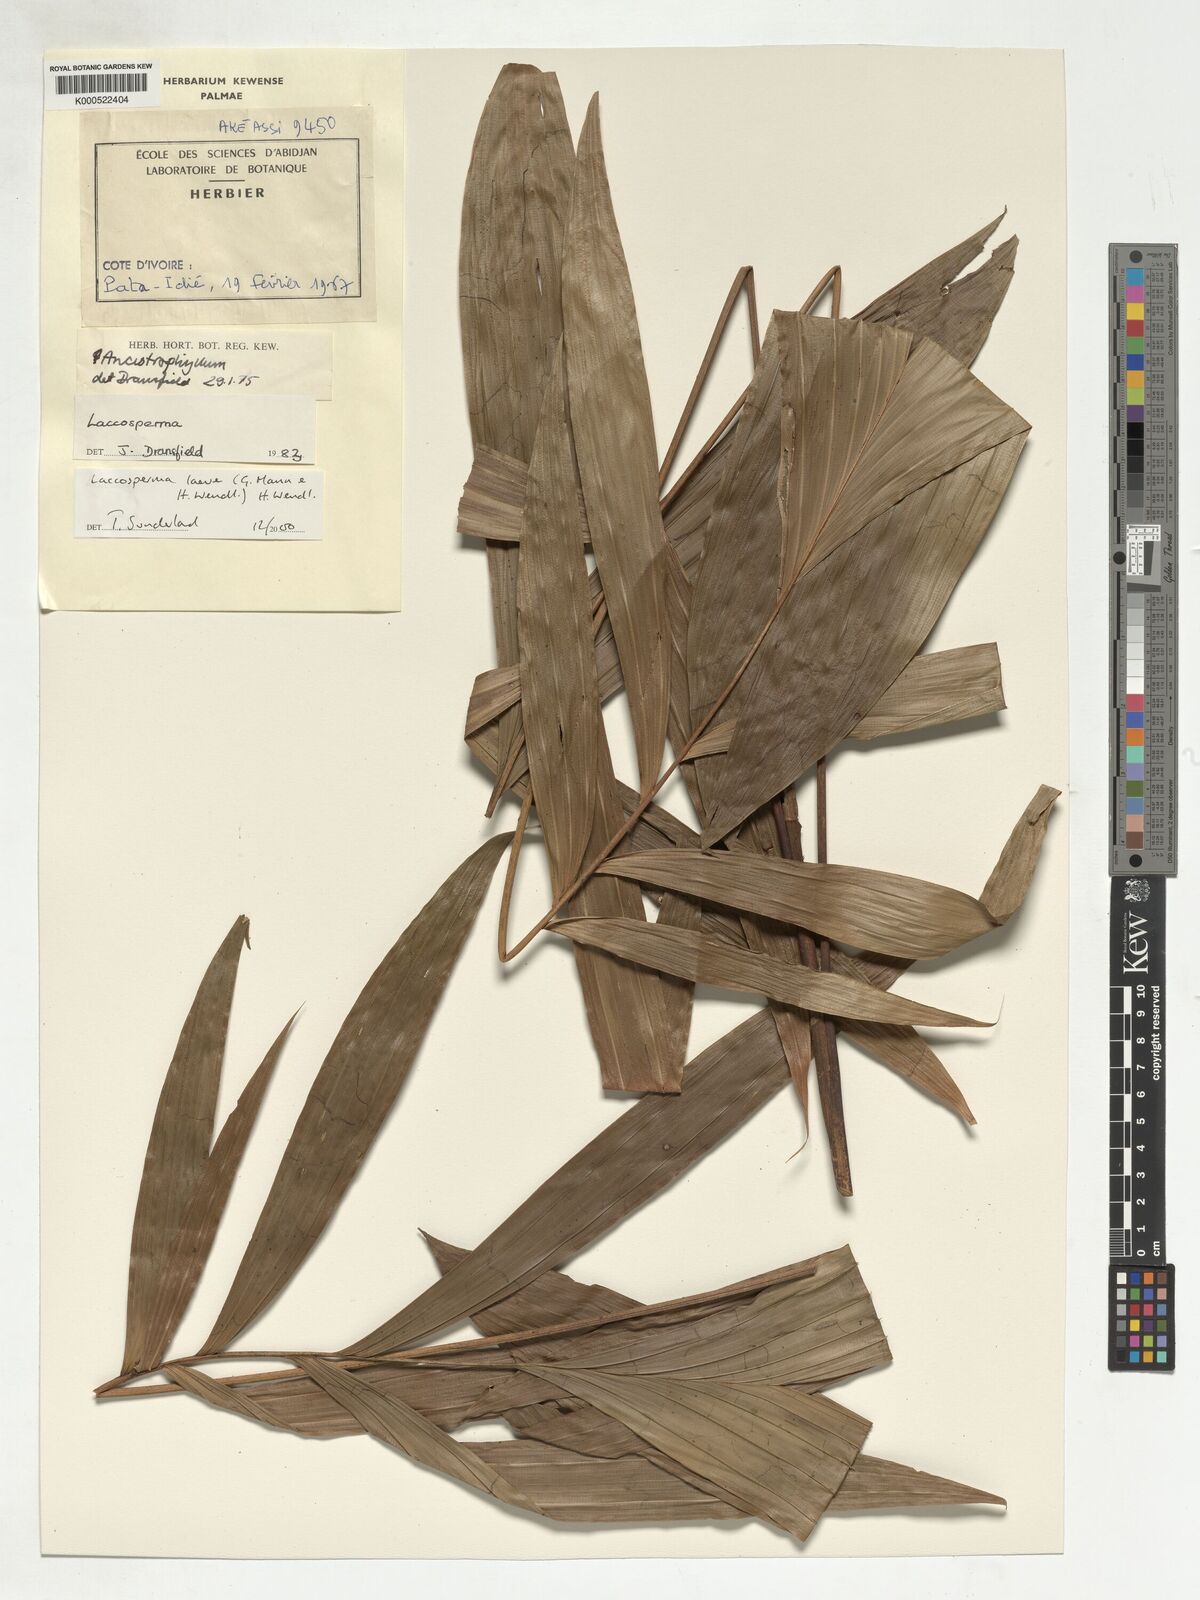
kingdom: Plantae
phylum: Tracheophyta
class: Liliopsida
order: Arecales
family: Arecaceae
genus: Laccosperma
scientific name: Laccosperma laeve
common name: Rattan
